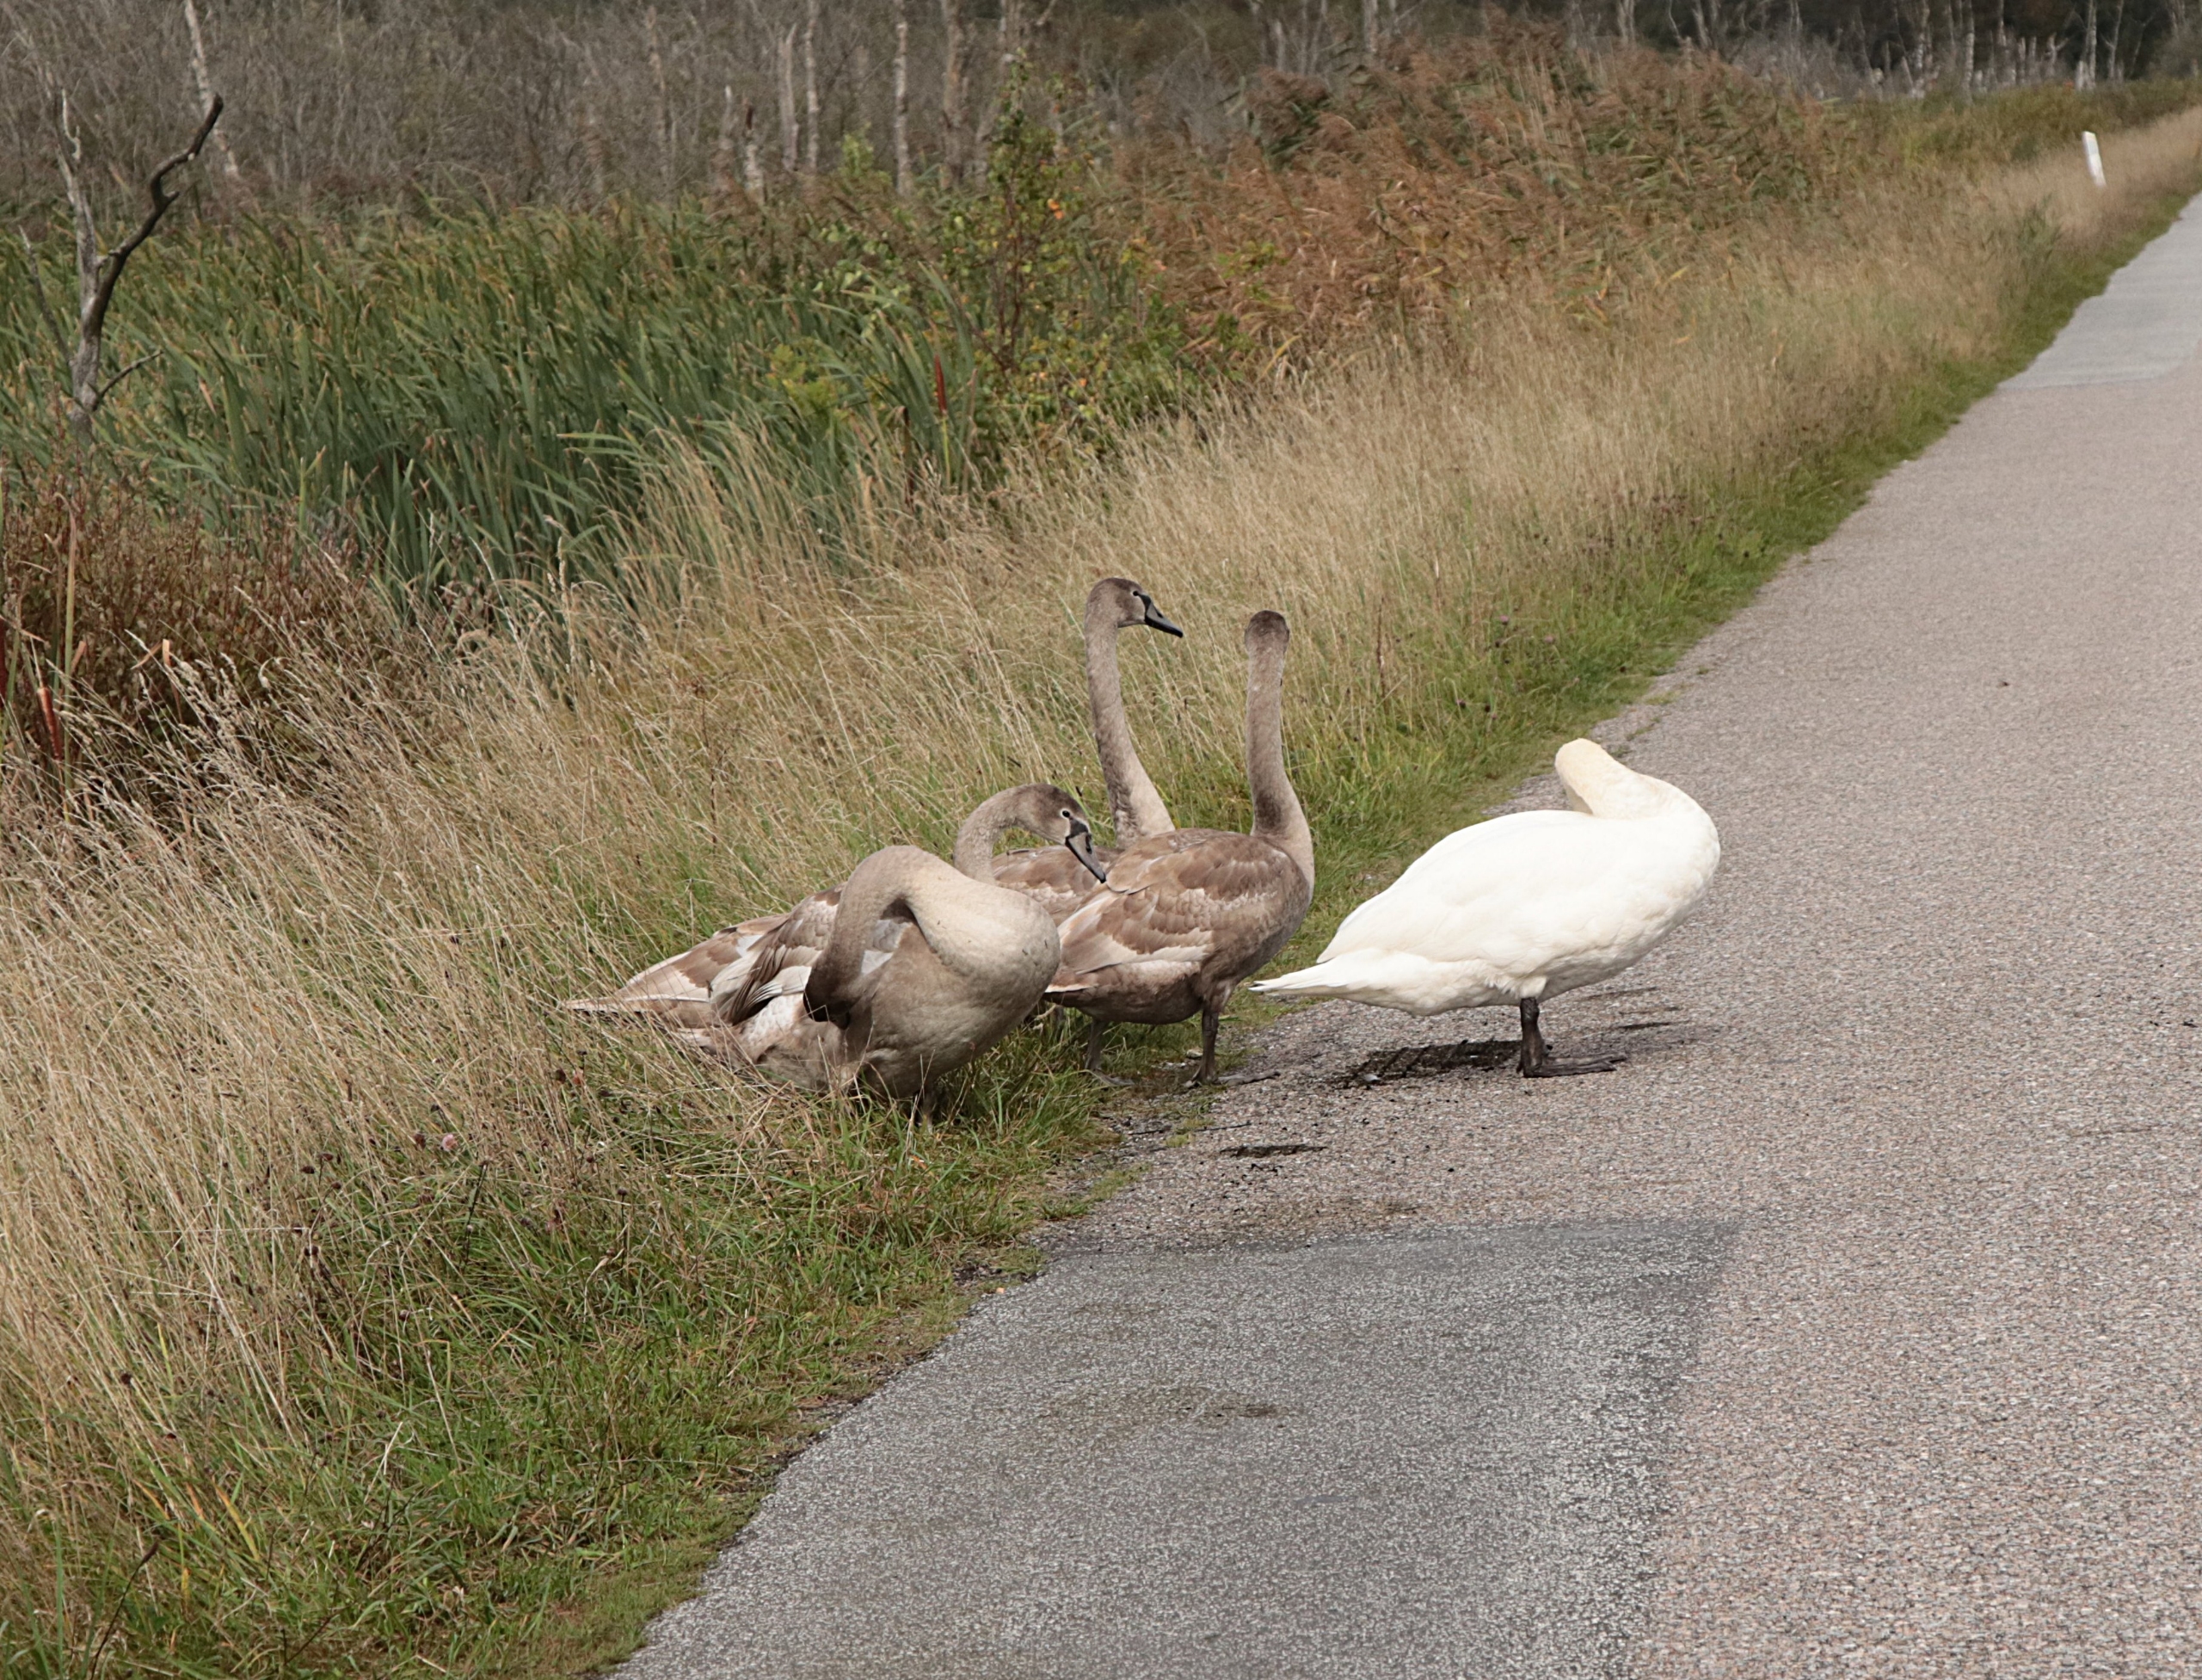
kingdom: Animalia
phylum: Chordata
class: Aves
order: Anseriformes
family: Anatidae
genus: Cygnus
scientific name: Cygnus olor
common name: Knopsvane
